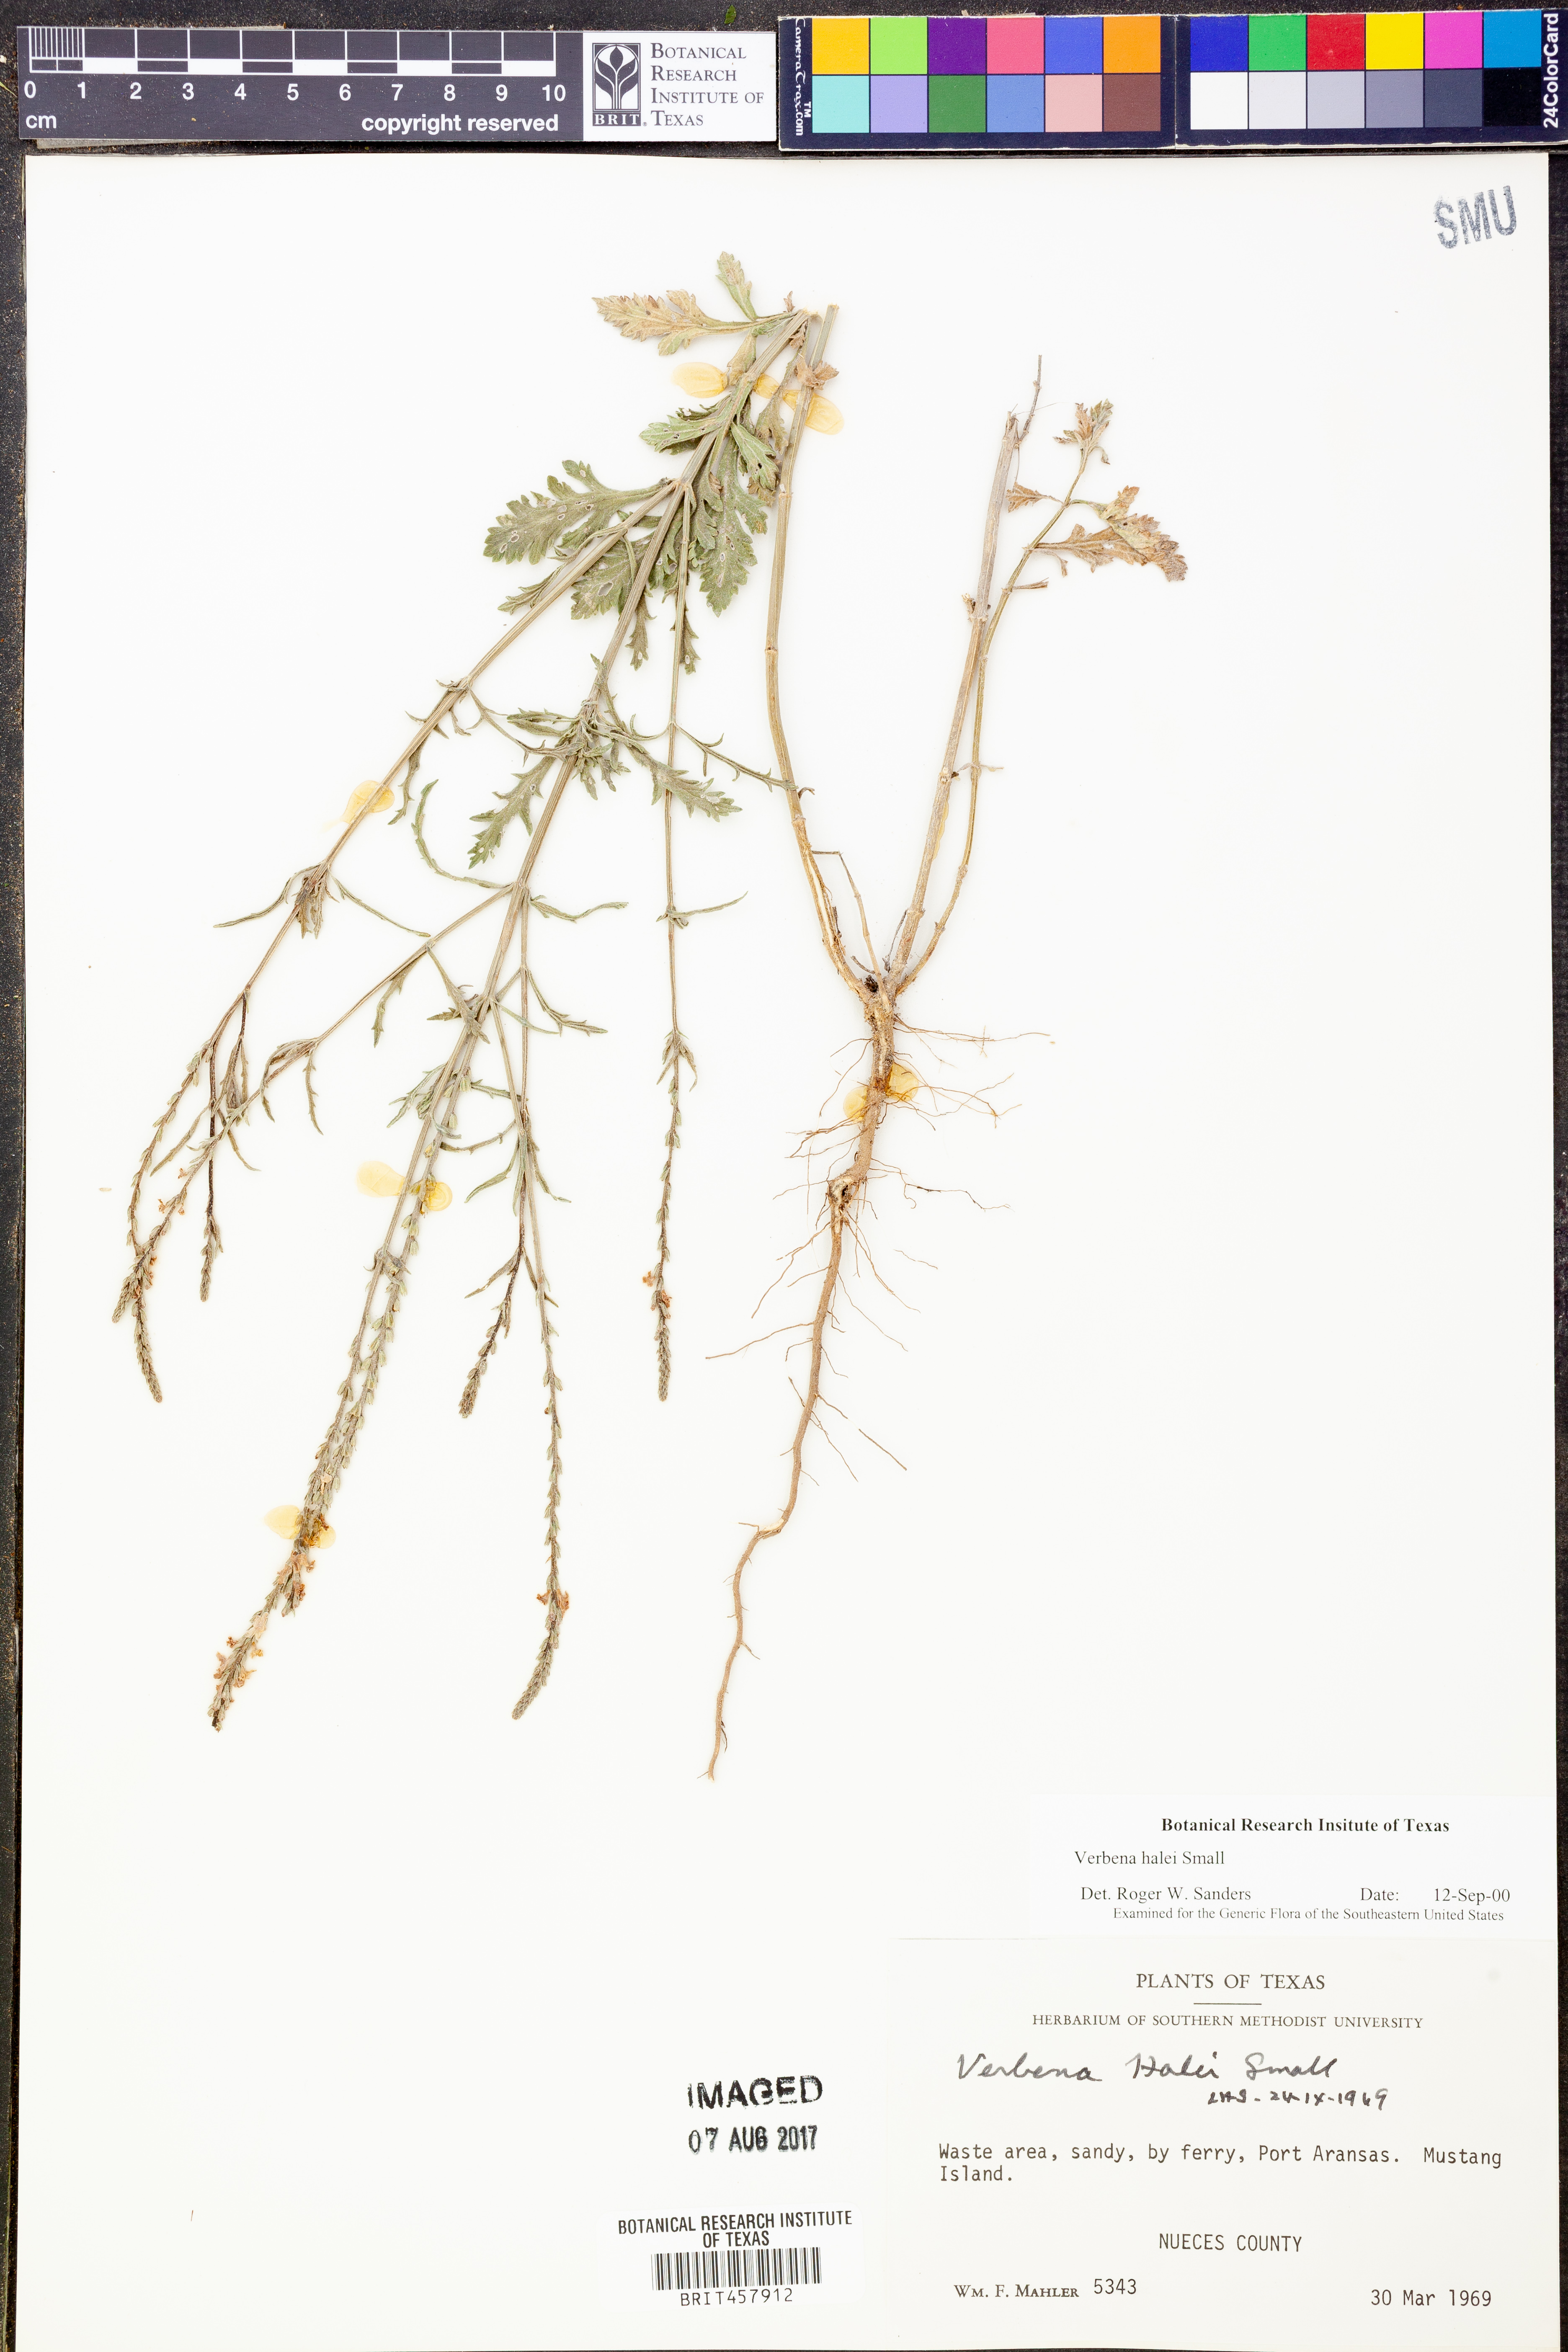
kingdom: Plantae
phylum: Tracheophyta
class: Magnoliopsida
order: Lamiales
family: Verbenaceae
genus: Verbena
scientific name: Verbena halei
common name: Texas vervain
